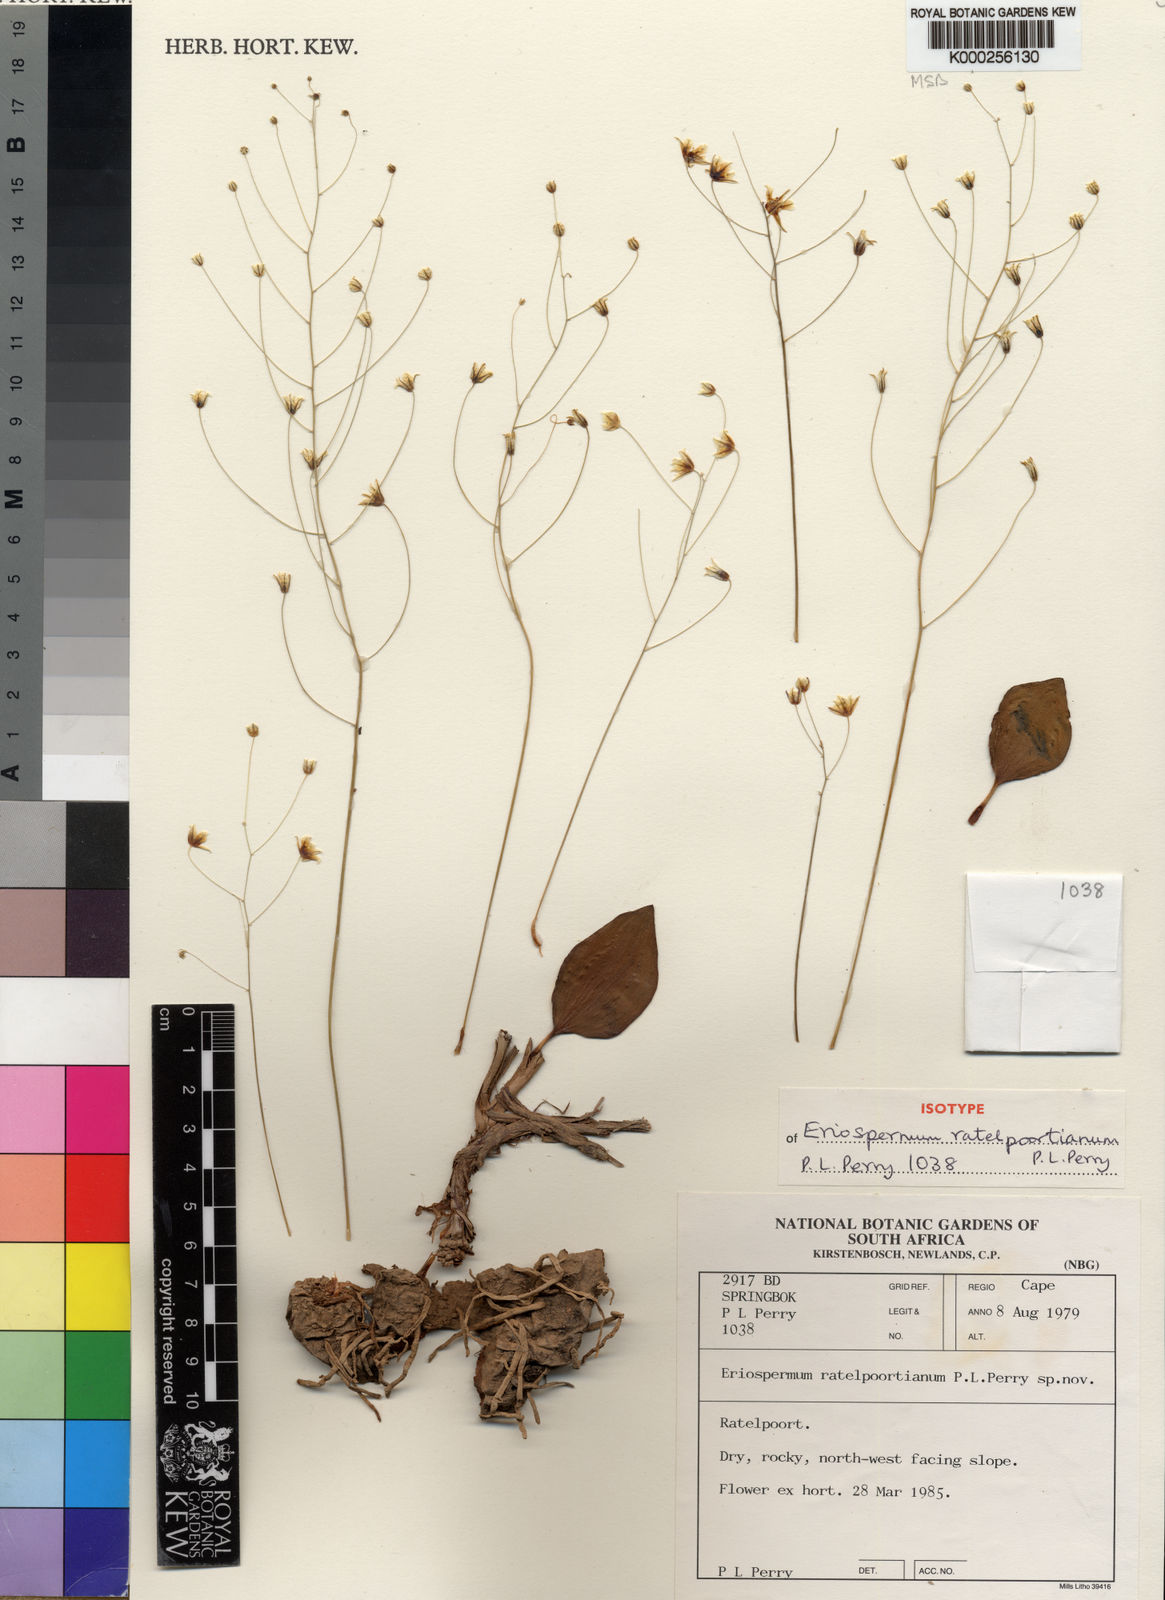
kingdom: Plantae
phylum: Tracheophyta
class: Liliopsida
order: Asparagales
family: Asparagaceae
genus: Eriospermum
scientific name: Eriospermum ratelpoortianum
